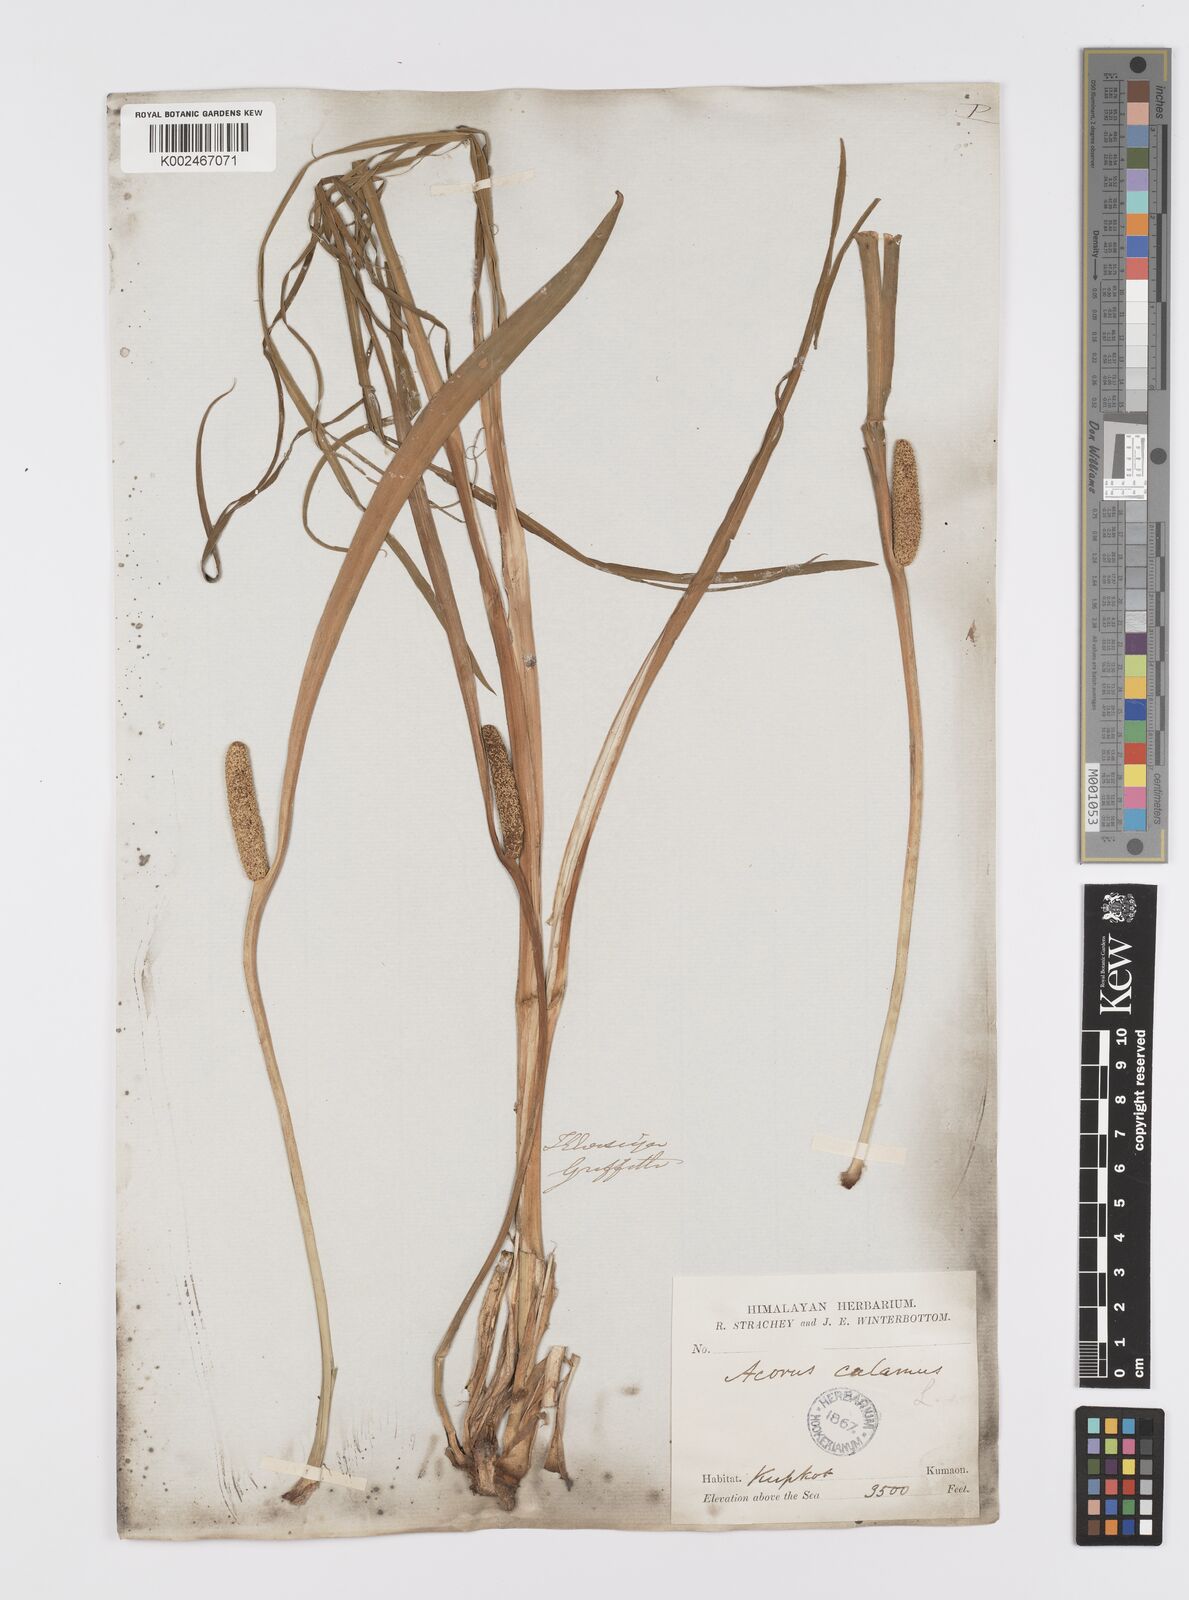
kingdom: Plantae
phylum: Tracheophyta
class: Liliopsida
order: Acorales
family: Acoraceae
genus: Acorus
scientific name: Acorus calamus
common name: Sweet-flag
